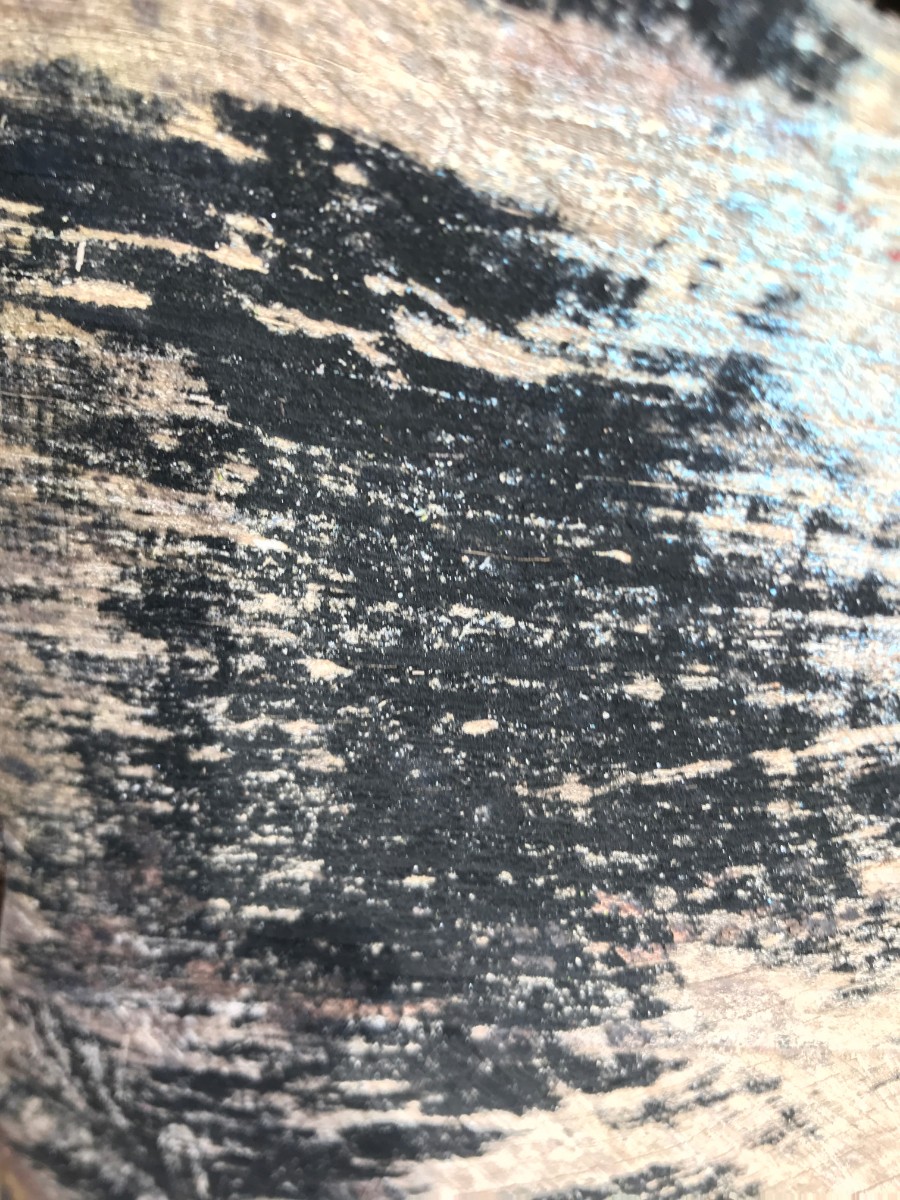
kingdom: Fungi
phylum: Ascomycota
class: Leotiomycetes
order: Helotiales
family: Helotiaceae
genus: Bispora
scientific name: Bispora pallescens
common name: måtte-snitskive
